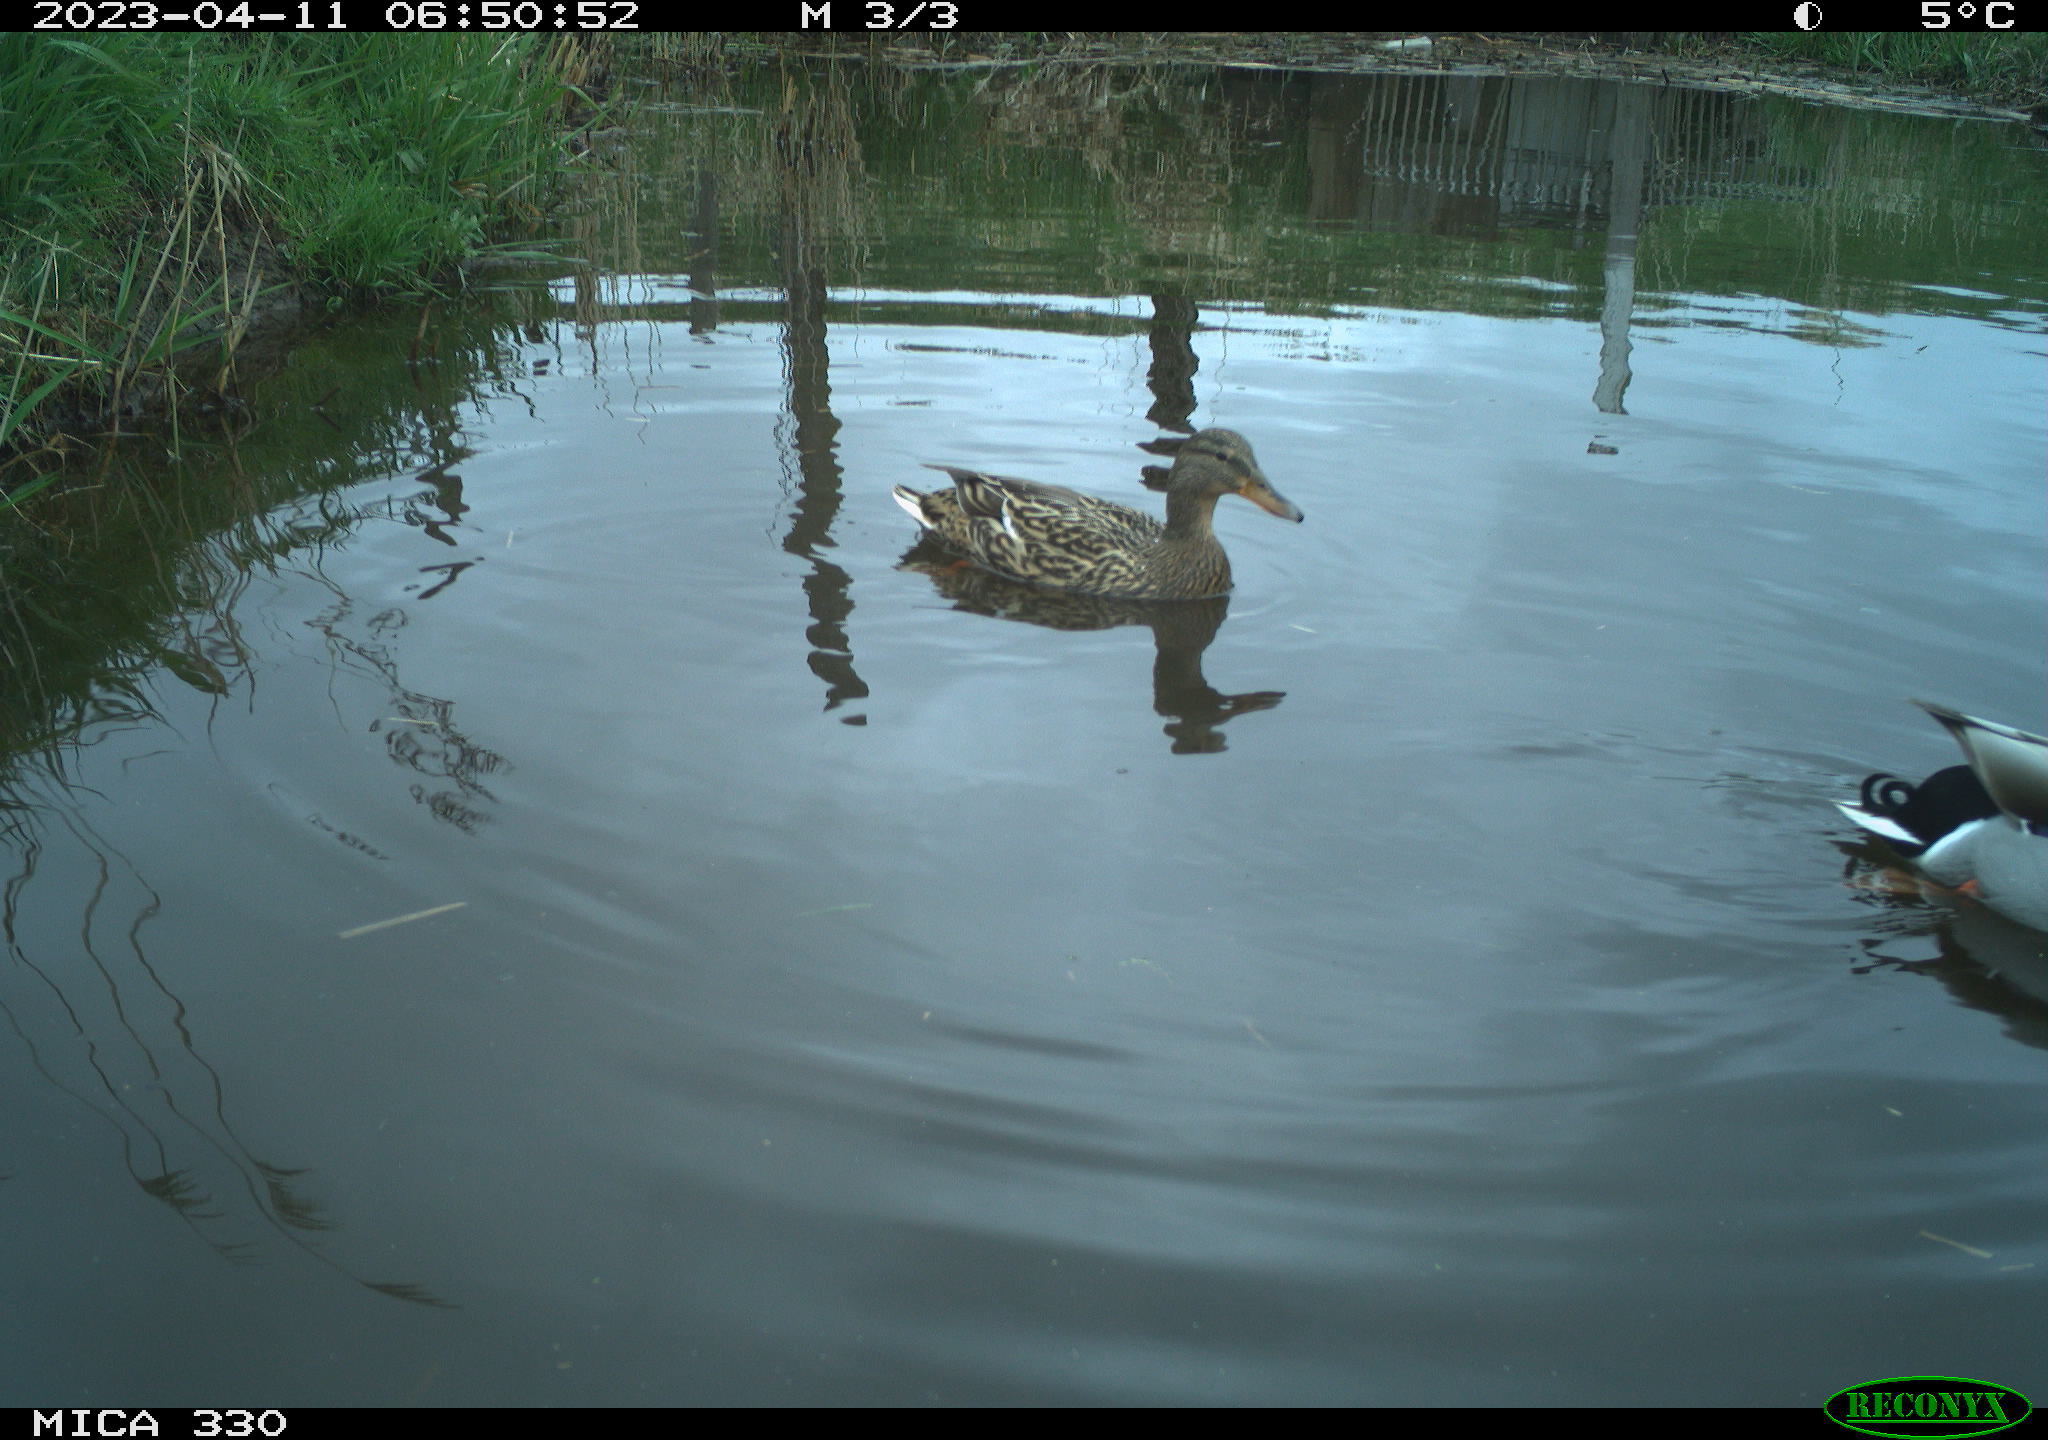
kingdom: Animalia
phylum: Chordata
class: Aves
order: Anseriformes
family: Anatidae
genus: Anas
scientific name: Anas
